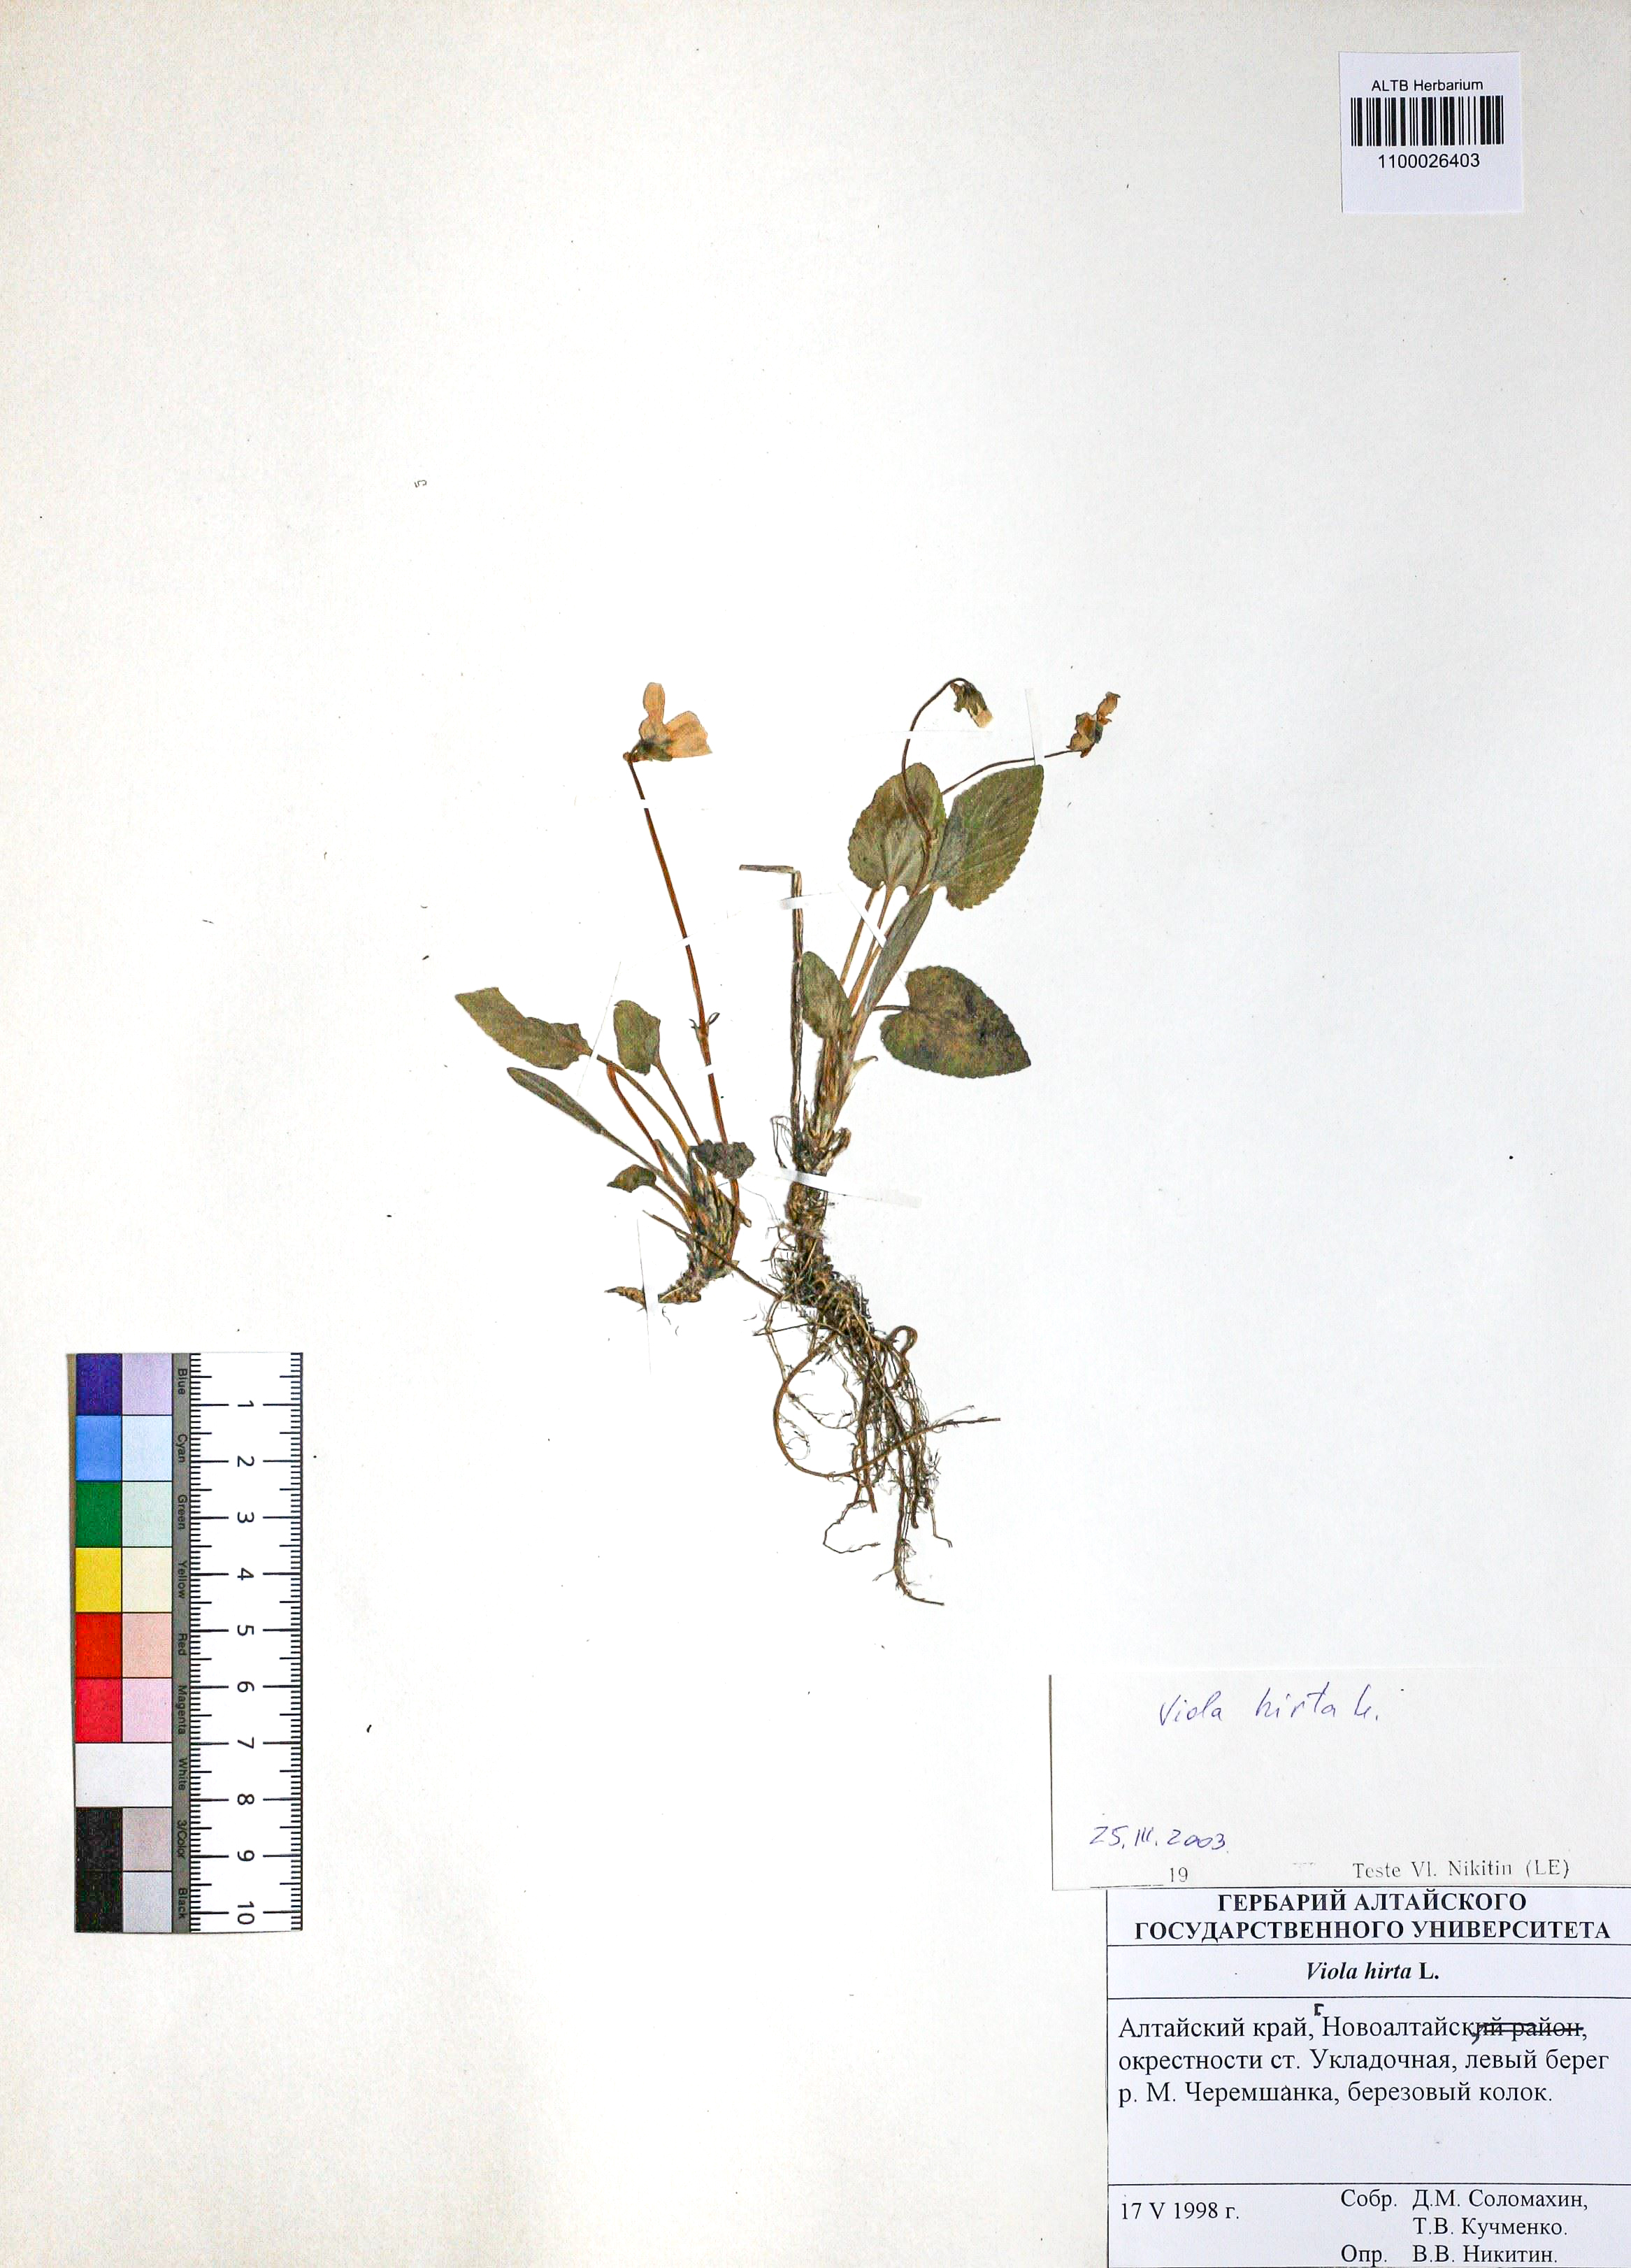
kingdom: Plantae
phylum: Tracheophyta
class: Magnoliopsida
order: Malpighiales
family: Violaceae
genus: Viola
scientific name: Viola hirta
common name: Hairy violet
